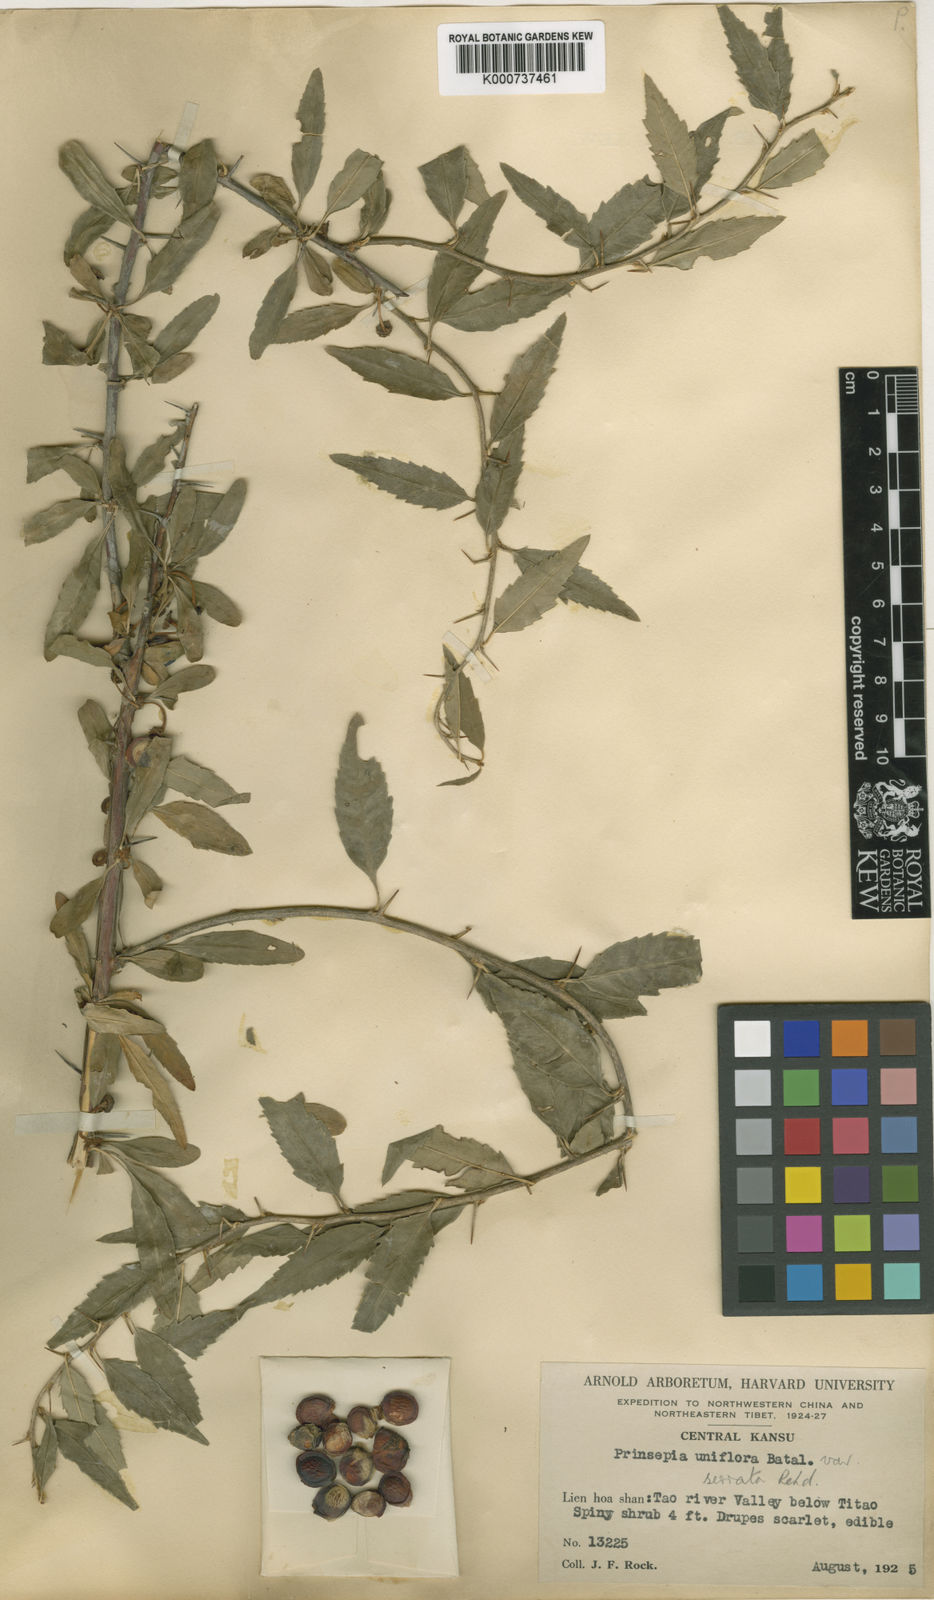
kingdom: Plantae
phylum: Tracheophyta
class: Magnoliopsida
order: Rosales
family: Rosaceae
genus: Prinsepia
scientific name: Prinsepia uniflora
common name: Prinsepia
